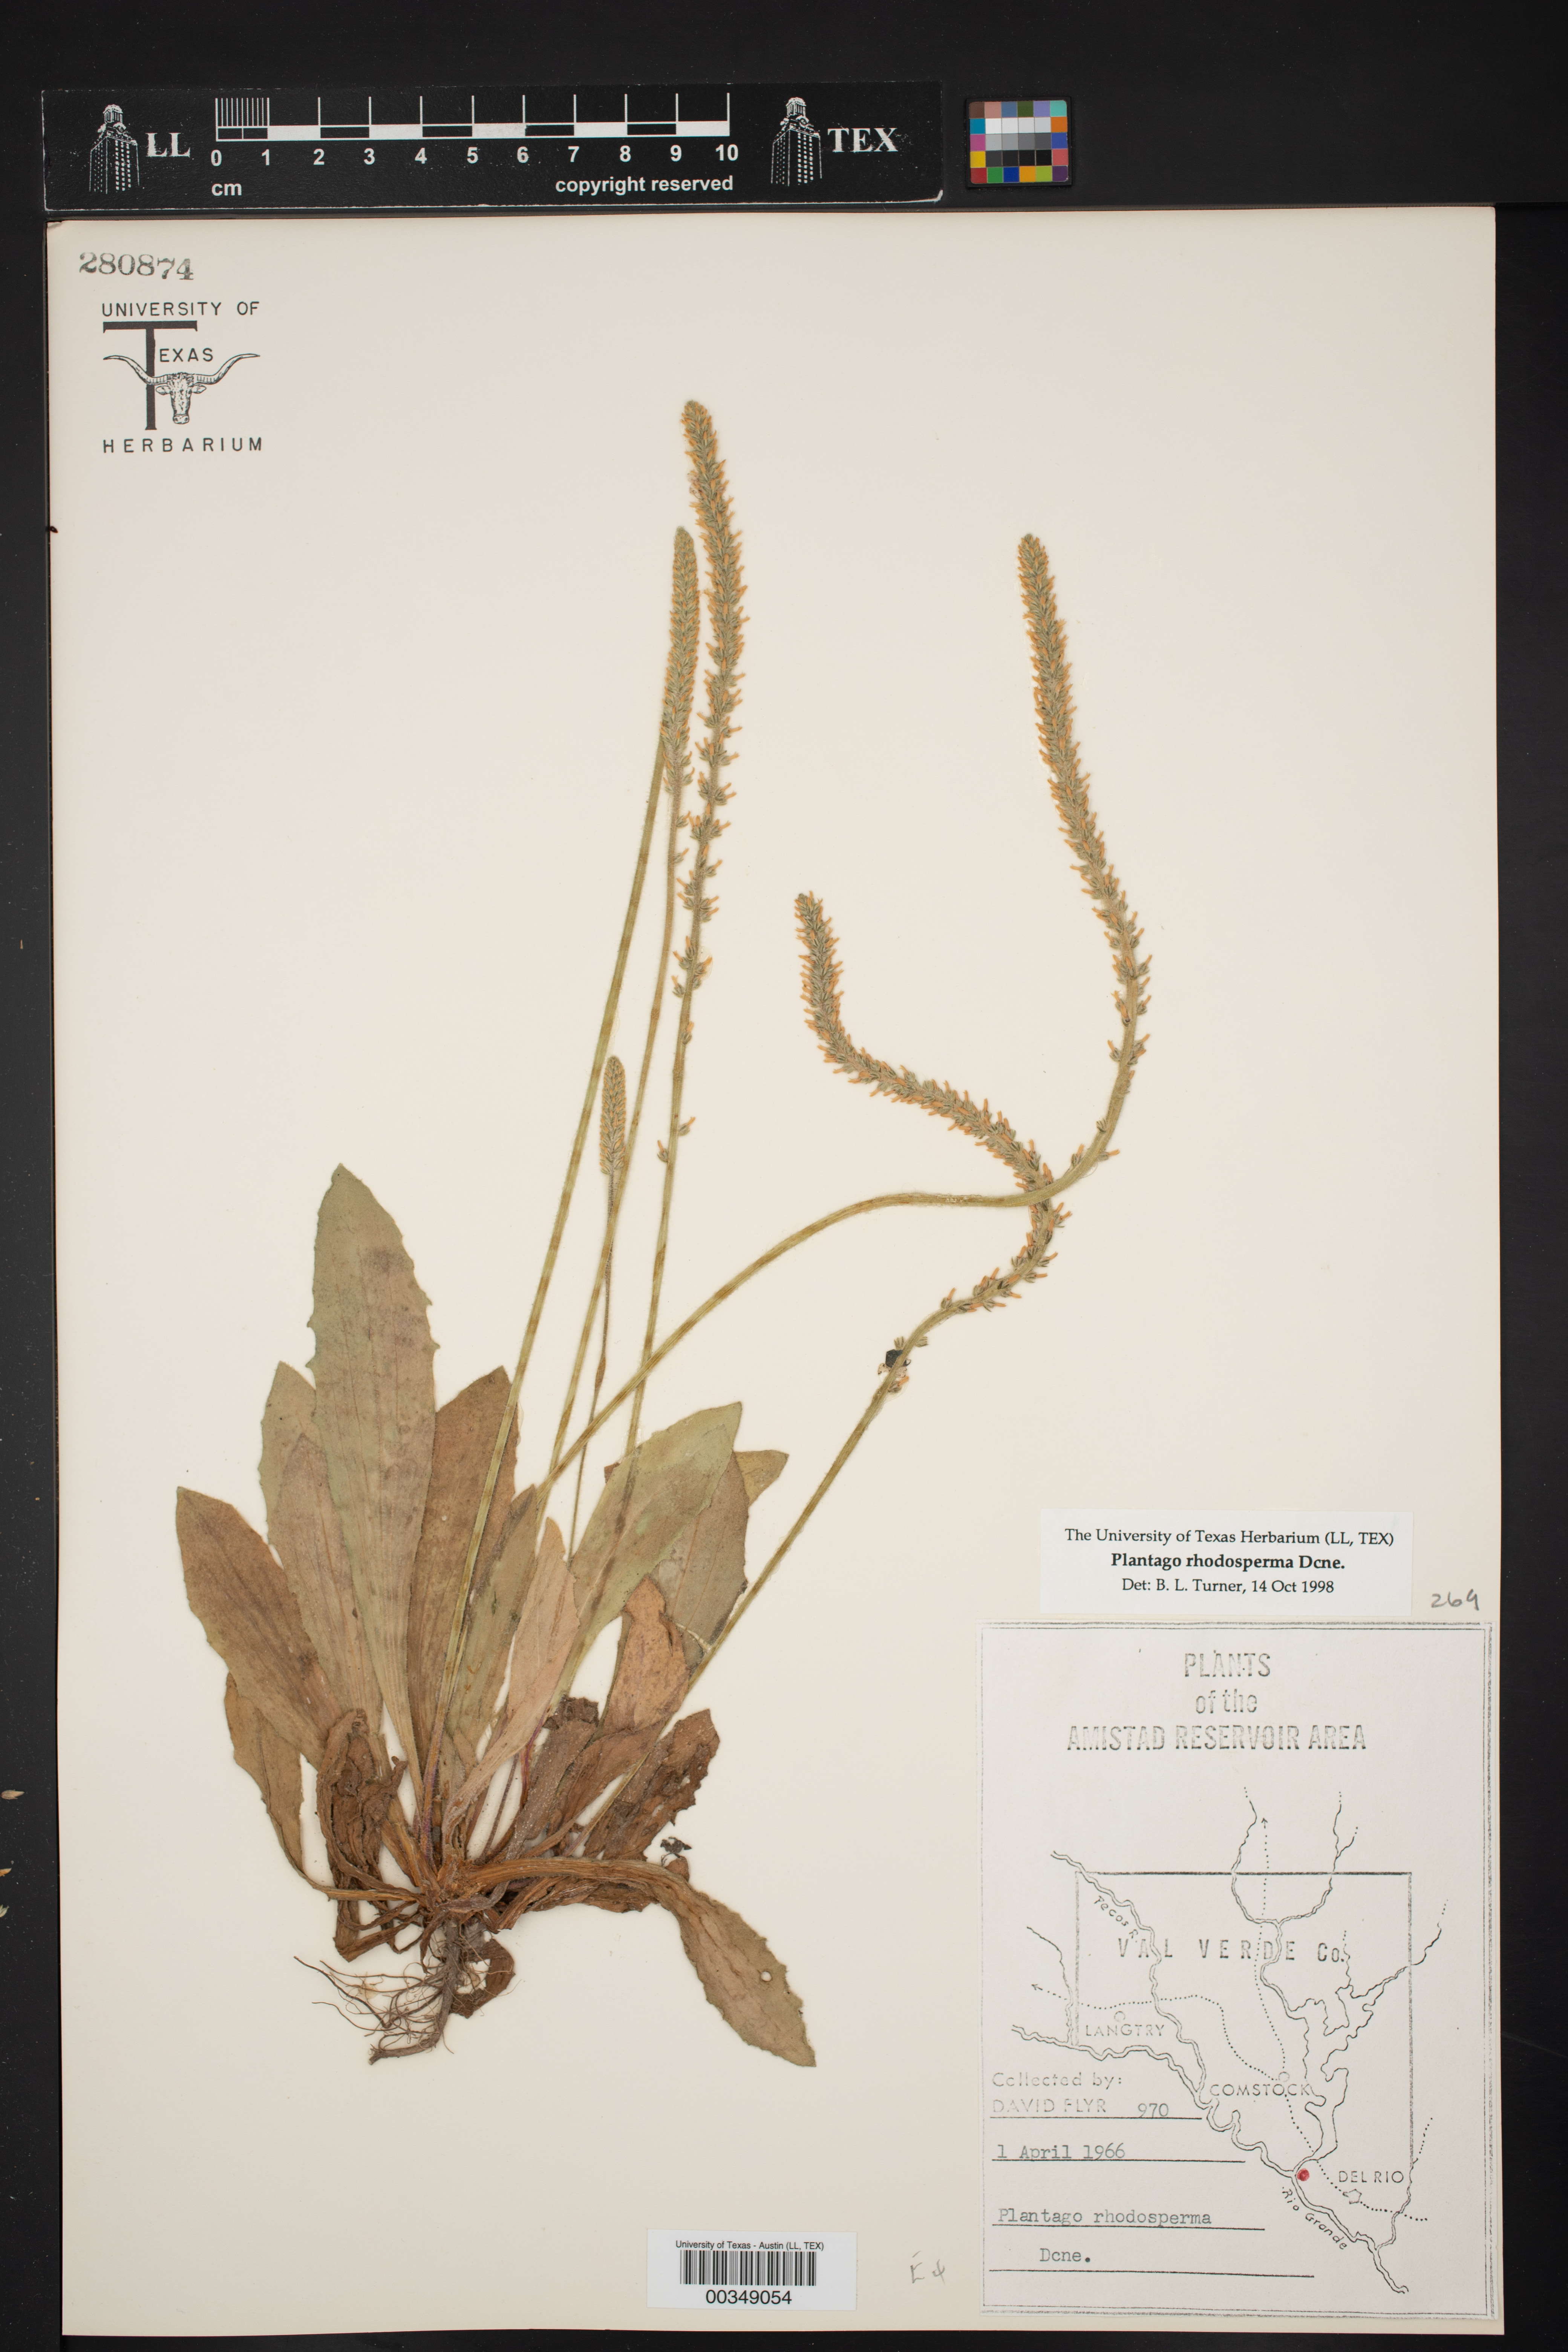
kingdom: Plantae
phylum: Tracheophyta
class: Magnoliopsida
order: Lamiales
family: Plantaginaceae
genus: Plantago
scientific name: Plantago rhodosperma
